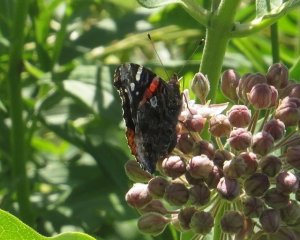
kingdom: Animalia
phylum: Arthropoda
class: Insecta
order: Lepidoptera
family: Nymphalidae
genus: Vanessa
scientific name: Vanessa atalanta
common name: Red Admiral
